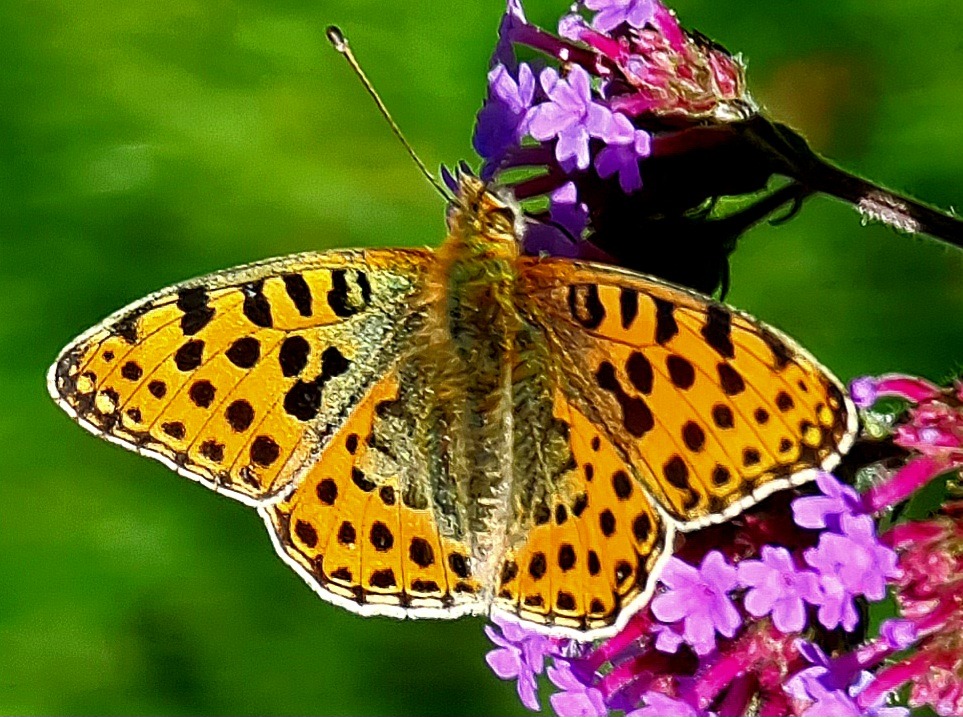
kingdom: Animalia
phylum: Arthropoda
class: Insecta
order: Lepidoptera
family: Nymphalidae
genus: Issoria
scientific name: Issoria lathonia
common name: Storplettet perlemorsommerfugl
